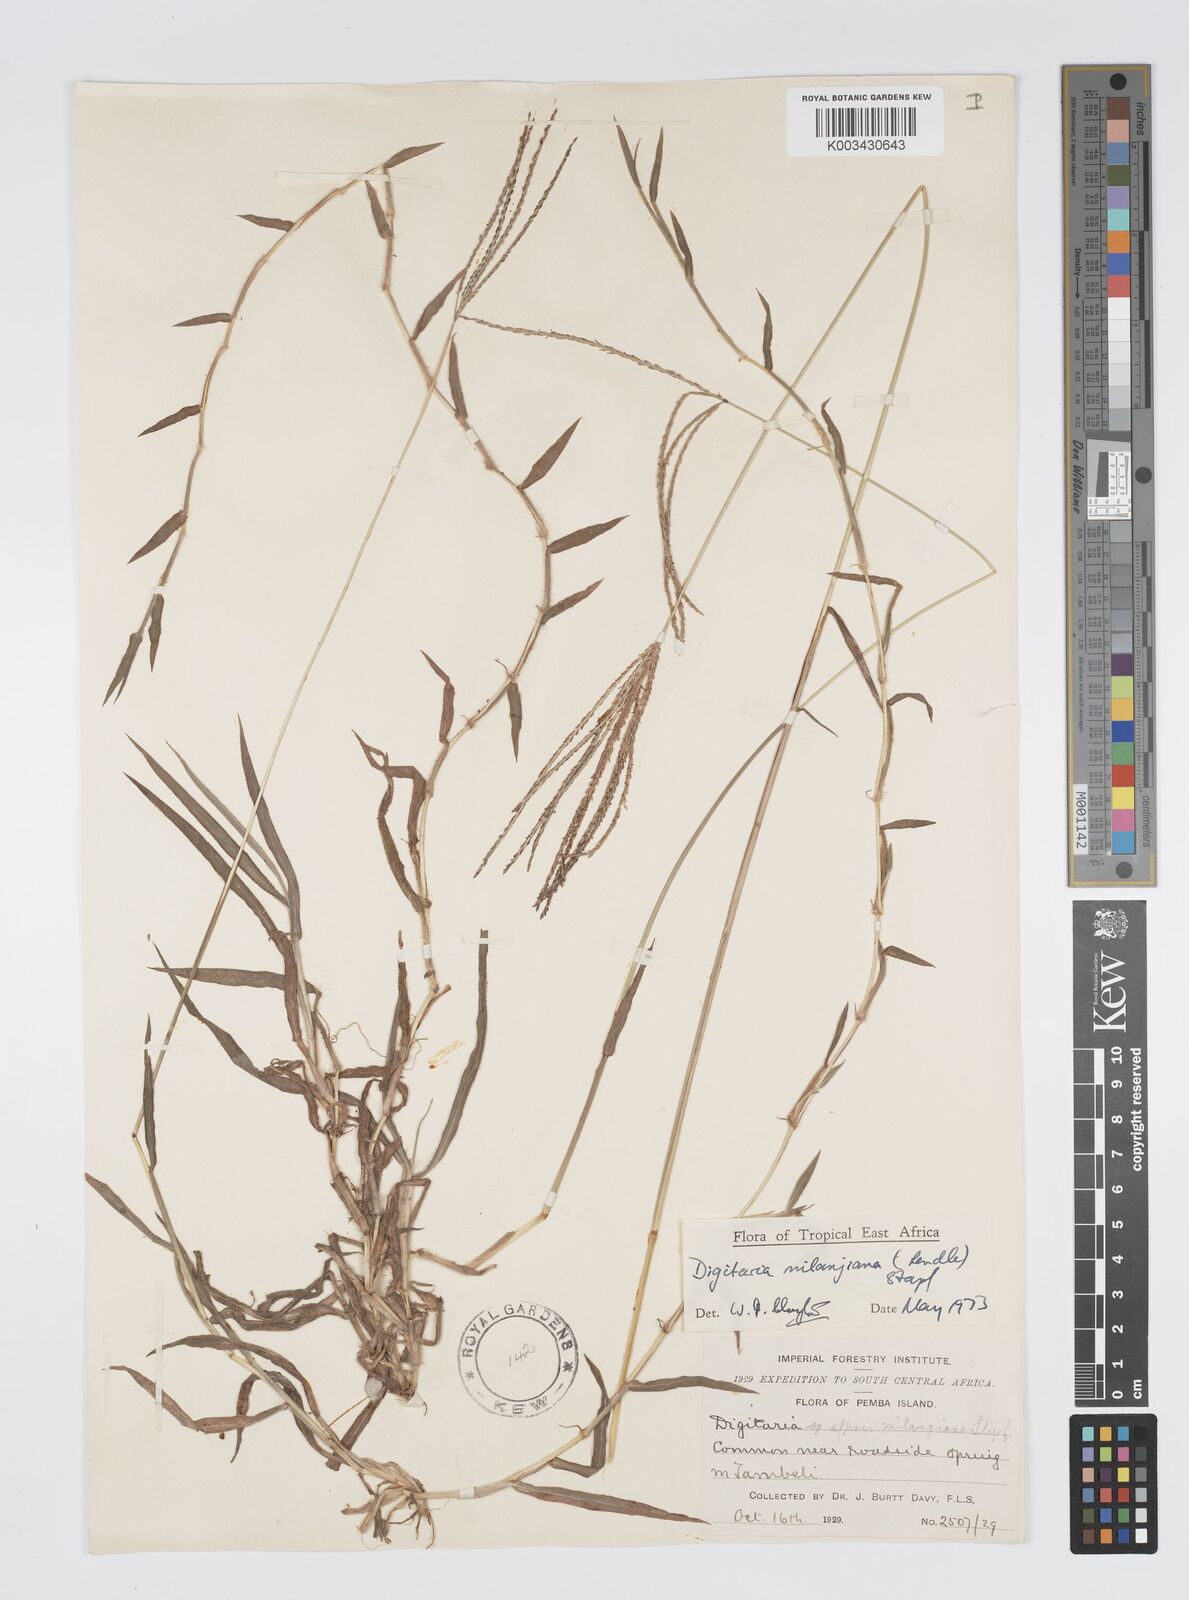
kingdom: Plantae
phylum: Tracheophyta
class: Liliopsida
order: Poales
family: Poaceae
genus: Digitaria
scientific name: Digitaria milanjiana
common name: Madagascar crabgrass
